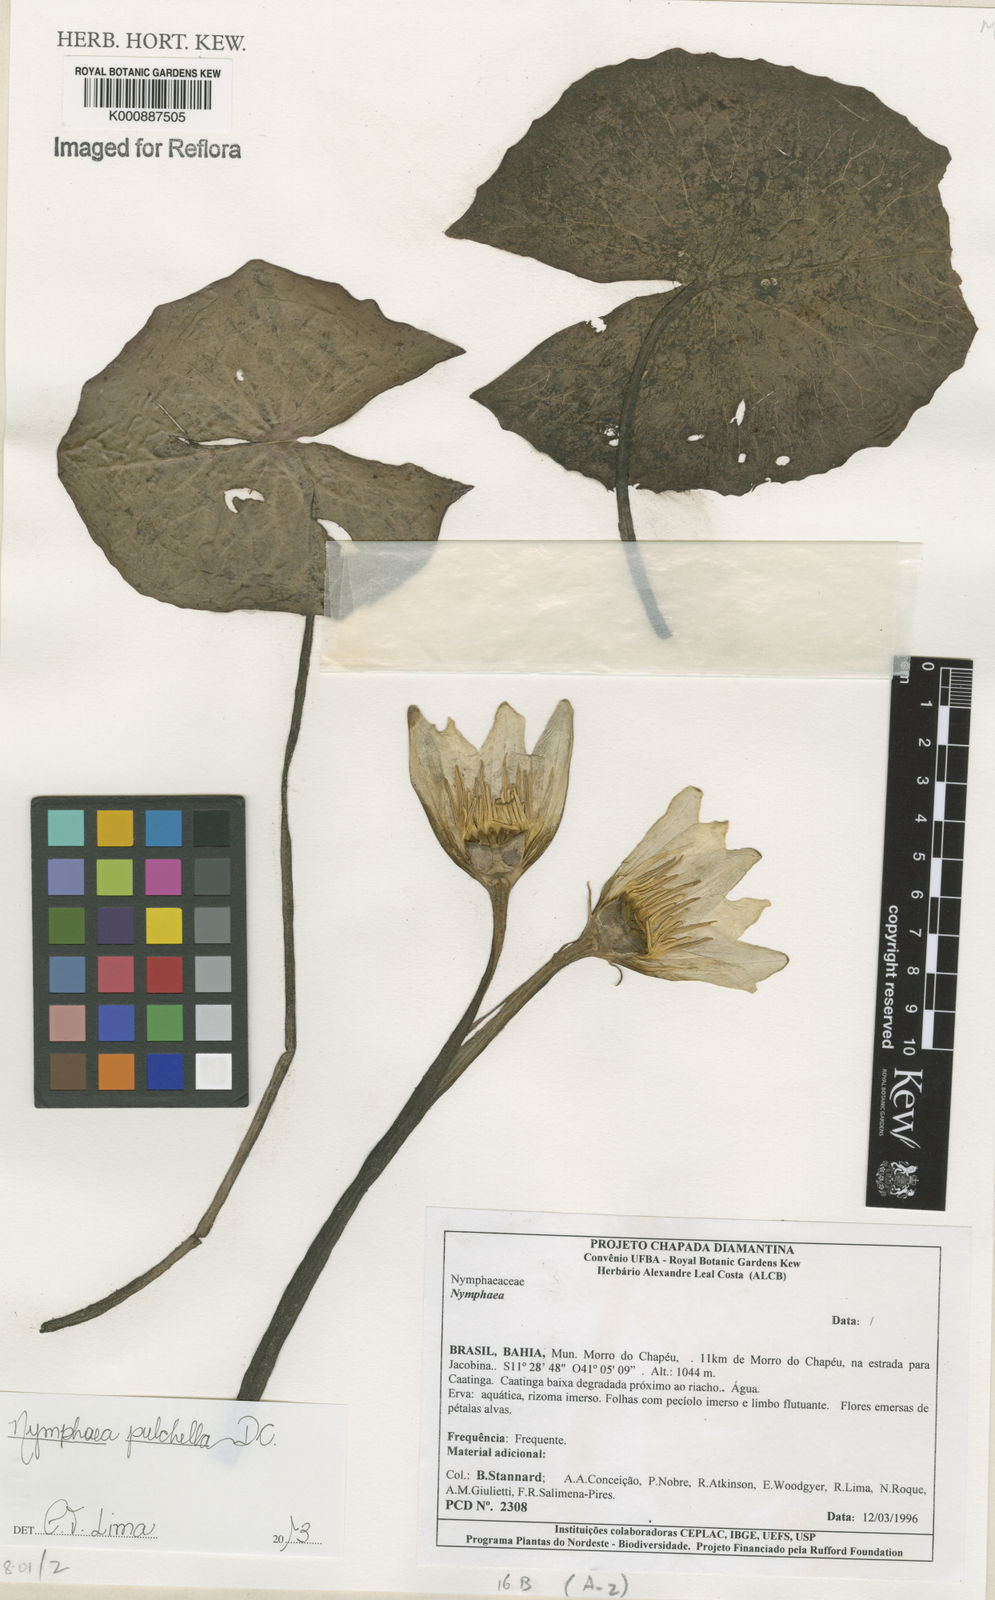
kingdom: Plantae
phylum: Tracheophyta
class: Magnoliopsida
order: Nymphaeales
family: Nymphaeaceae
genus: Nymphaea
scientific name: Nymphaea pulchella
